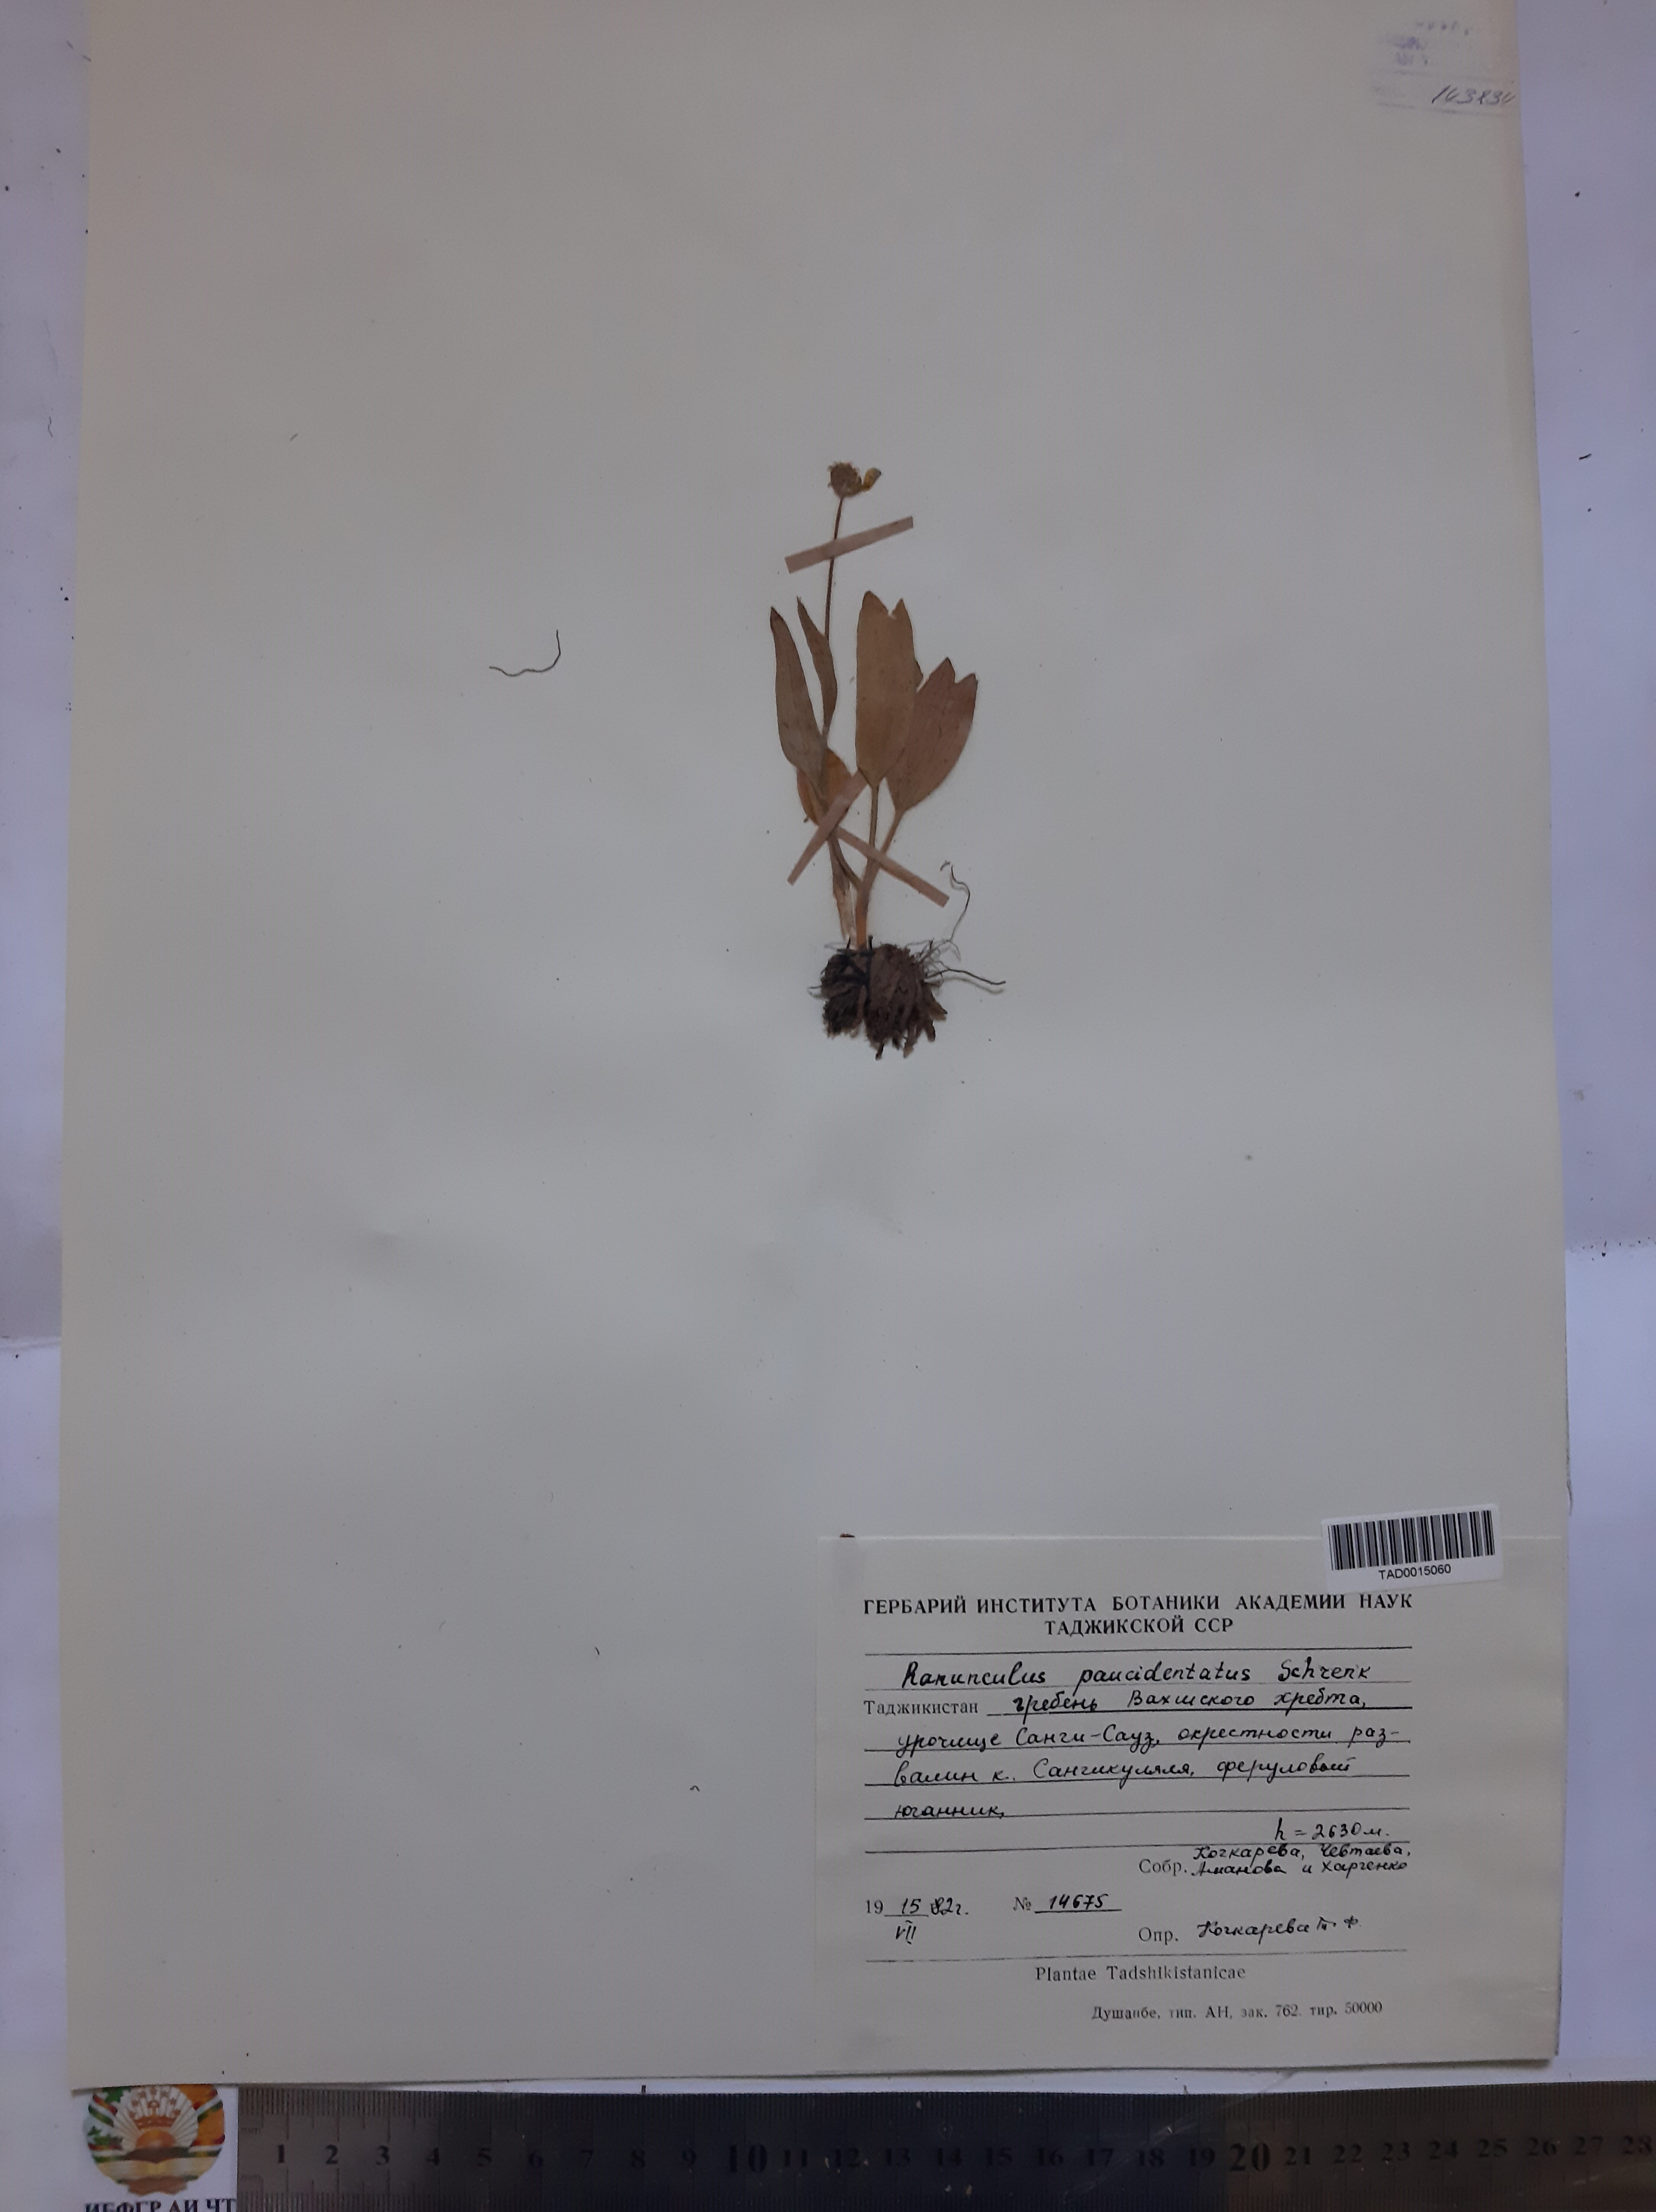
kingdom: Plantae
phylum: Tracheophyta
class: Magnoliopsida
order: Ranunculales
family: Ranunculaceae
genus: Ranunculus
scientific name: Ranunculus paucidentatus
